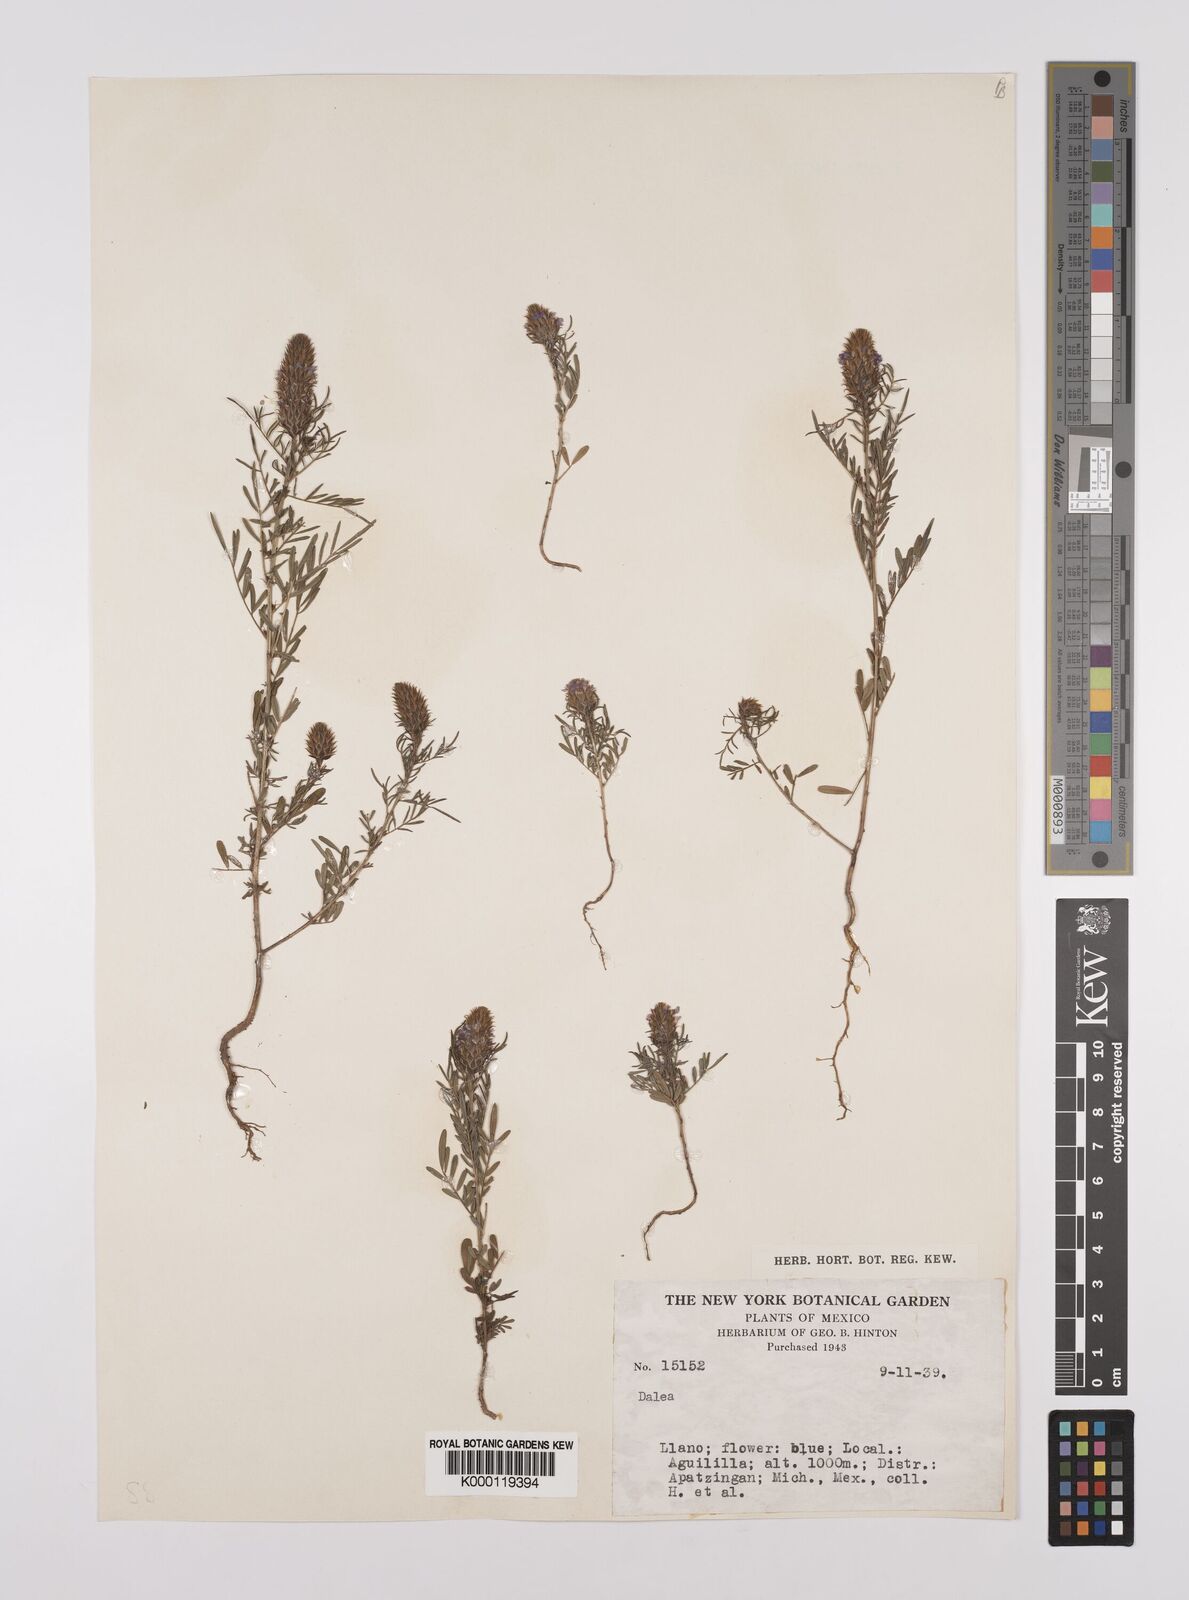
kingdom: Plantae
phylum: Tracheophyta
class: Magnoliopsida
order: Fabales
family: Fabaceae
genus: Dalea
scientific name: Dalea
